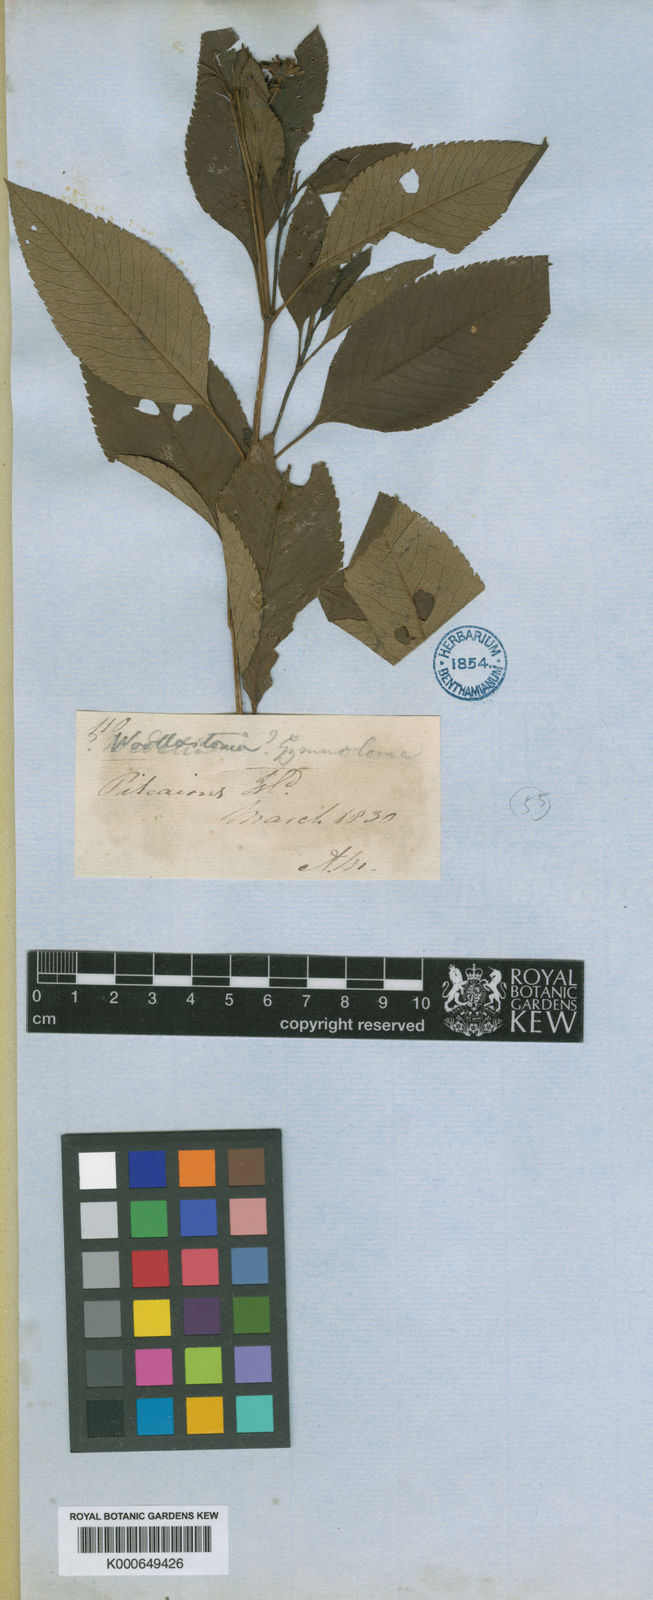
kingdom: Plantae
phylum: Tracheophyta
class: Magnoliopsida
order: Asterales
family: Asteraceae
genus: Bidens
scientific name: Bidens mathewsii
